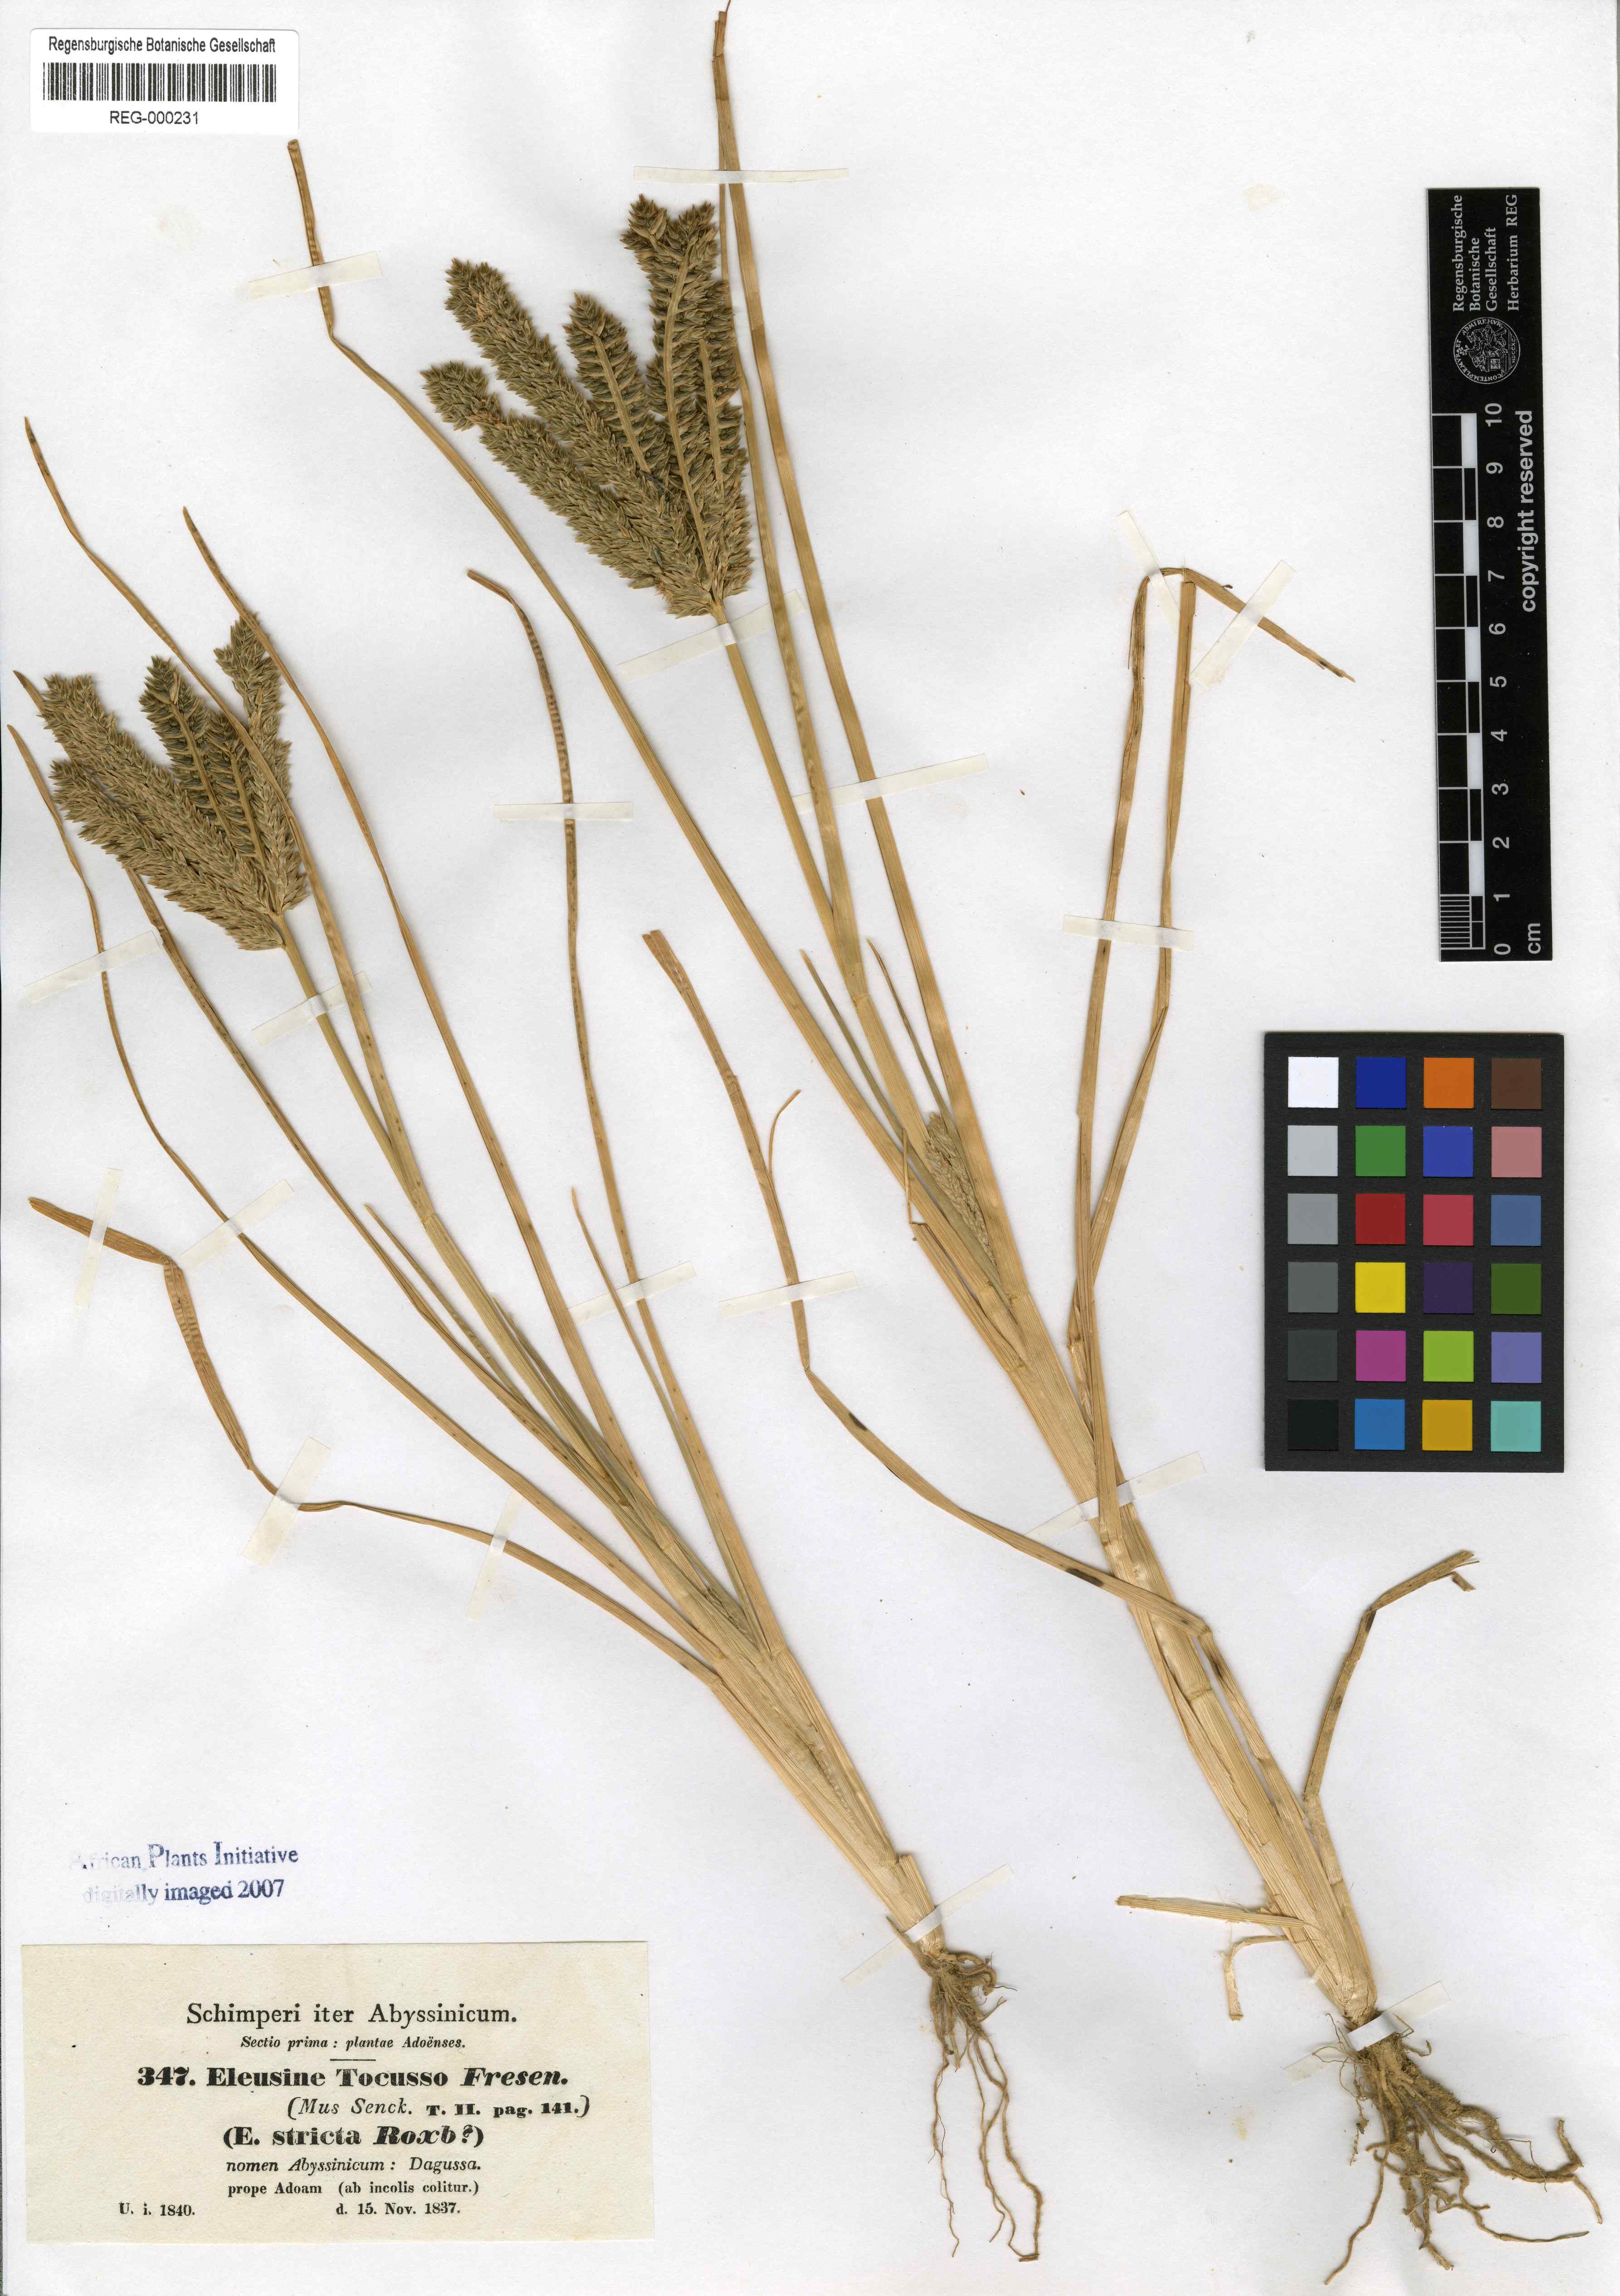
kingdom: Plantae
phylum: Tracheophyta
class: Liliopsida
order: Poales
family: Poaceae
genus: Eleusine
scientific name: Eleusine coracana
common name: Finger millet
